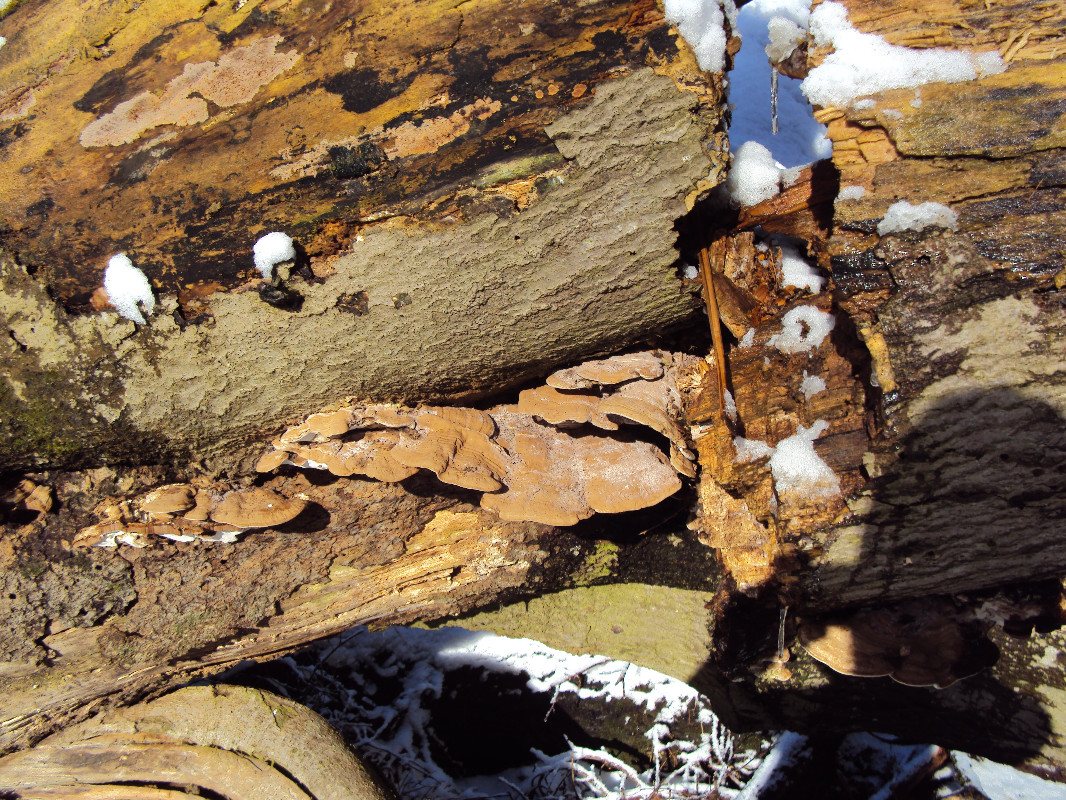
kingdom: Fungi
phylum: Basidiomycota
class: Agaricomycetes
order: Polyporales
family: Polyporaceae
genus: Ganoderma
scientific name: Ganoderma applanatum
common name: flad lakporesvamp
